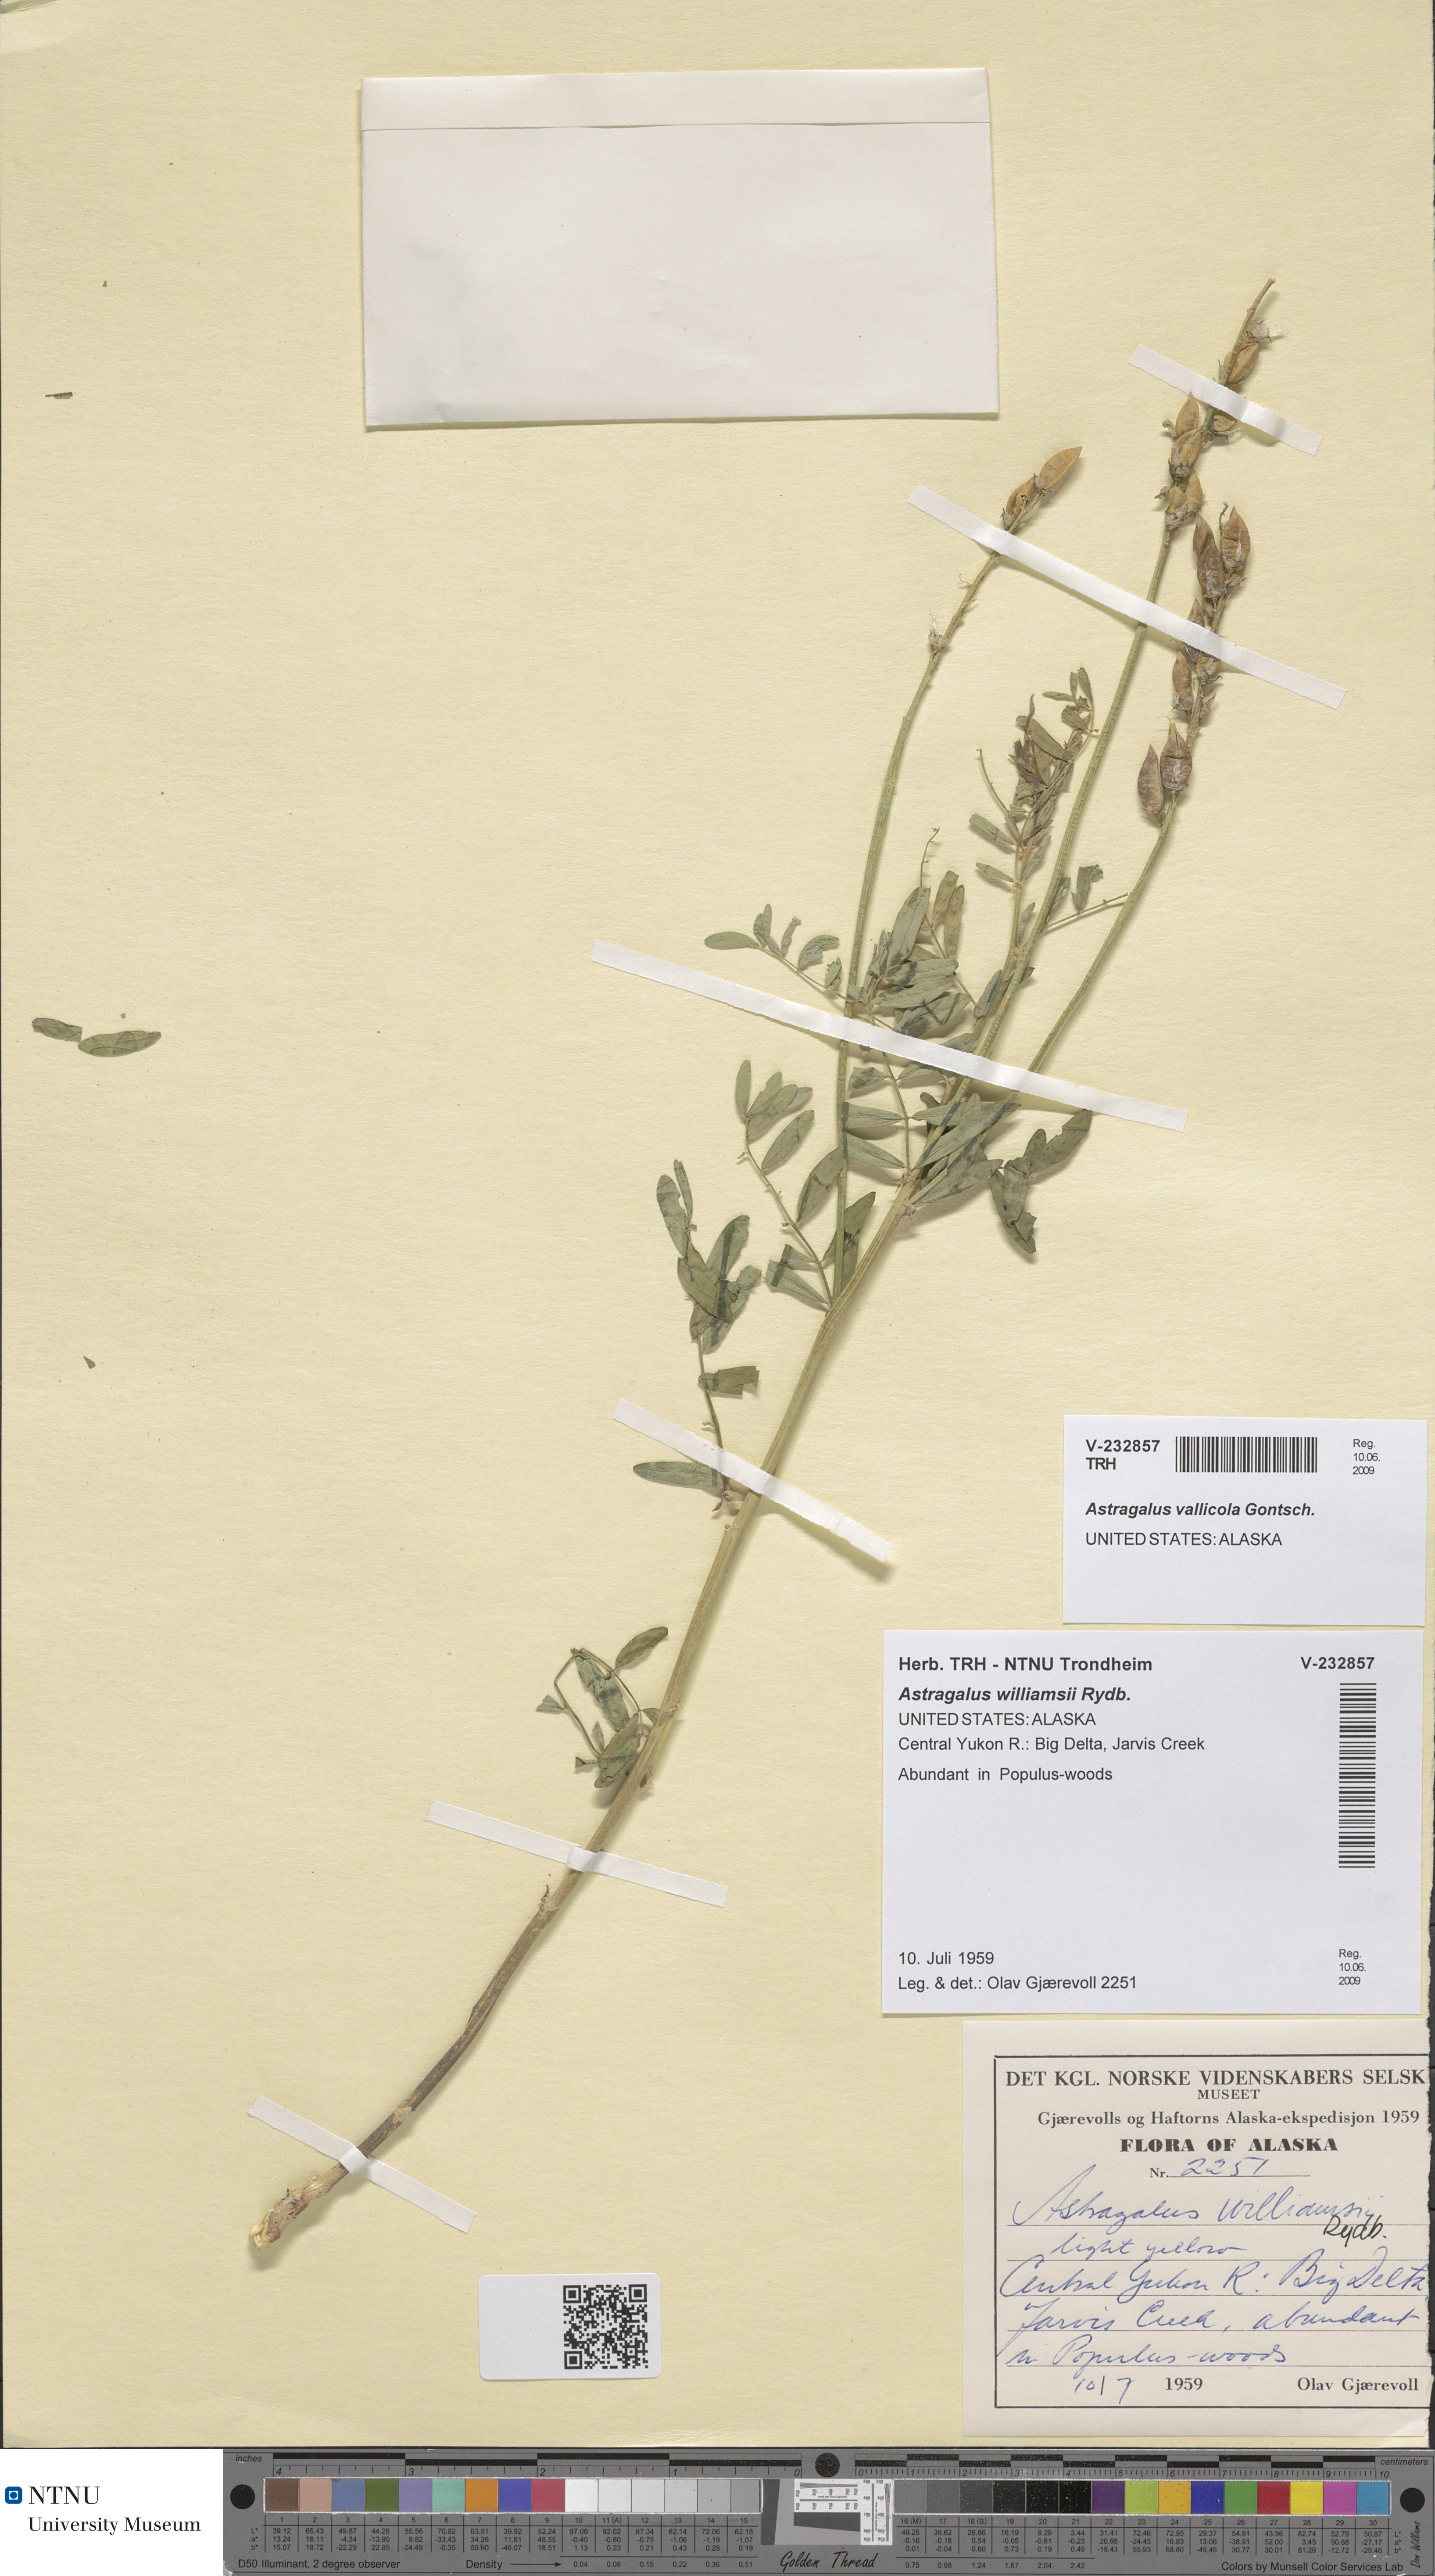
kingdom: Plantae
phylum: Tracheophyta
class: Magnoliopsida
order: Fabales
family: Fabaceae
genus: Astragalus
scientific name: Astragalus williamsii
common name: Williams' milkvetch
